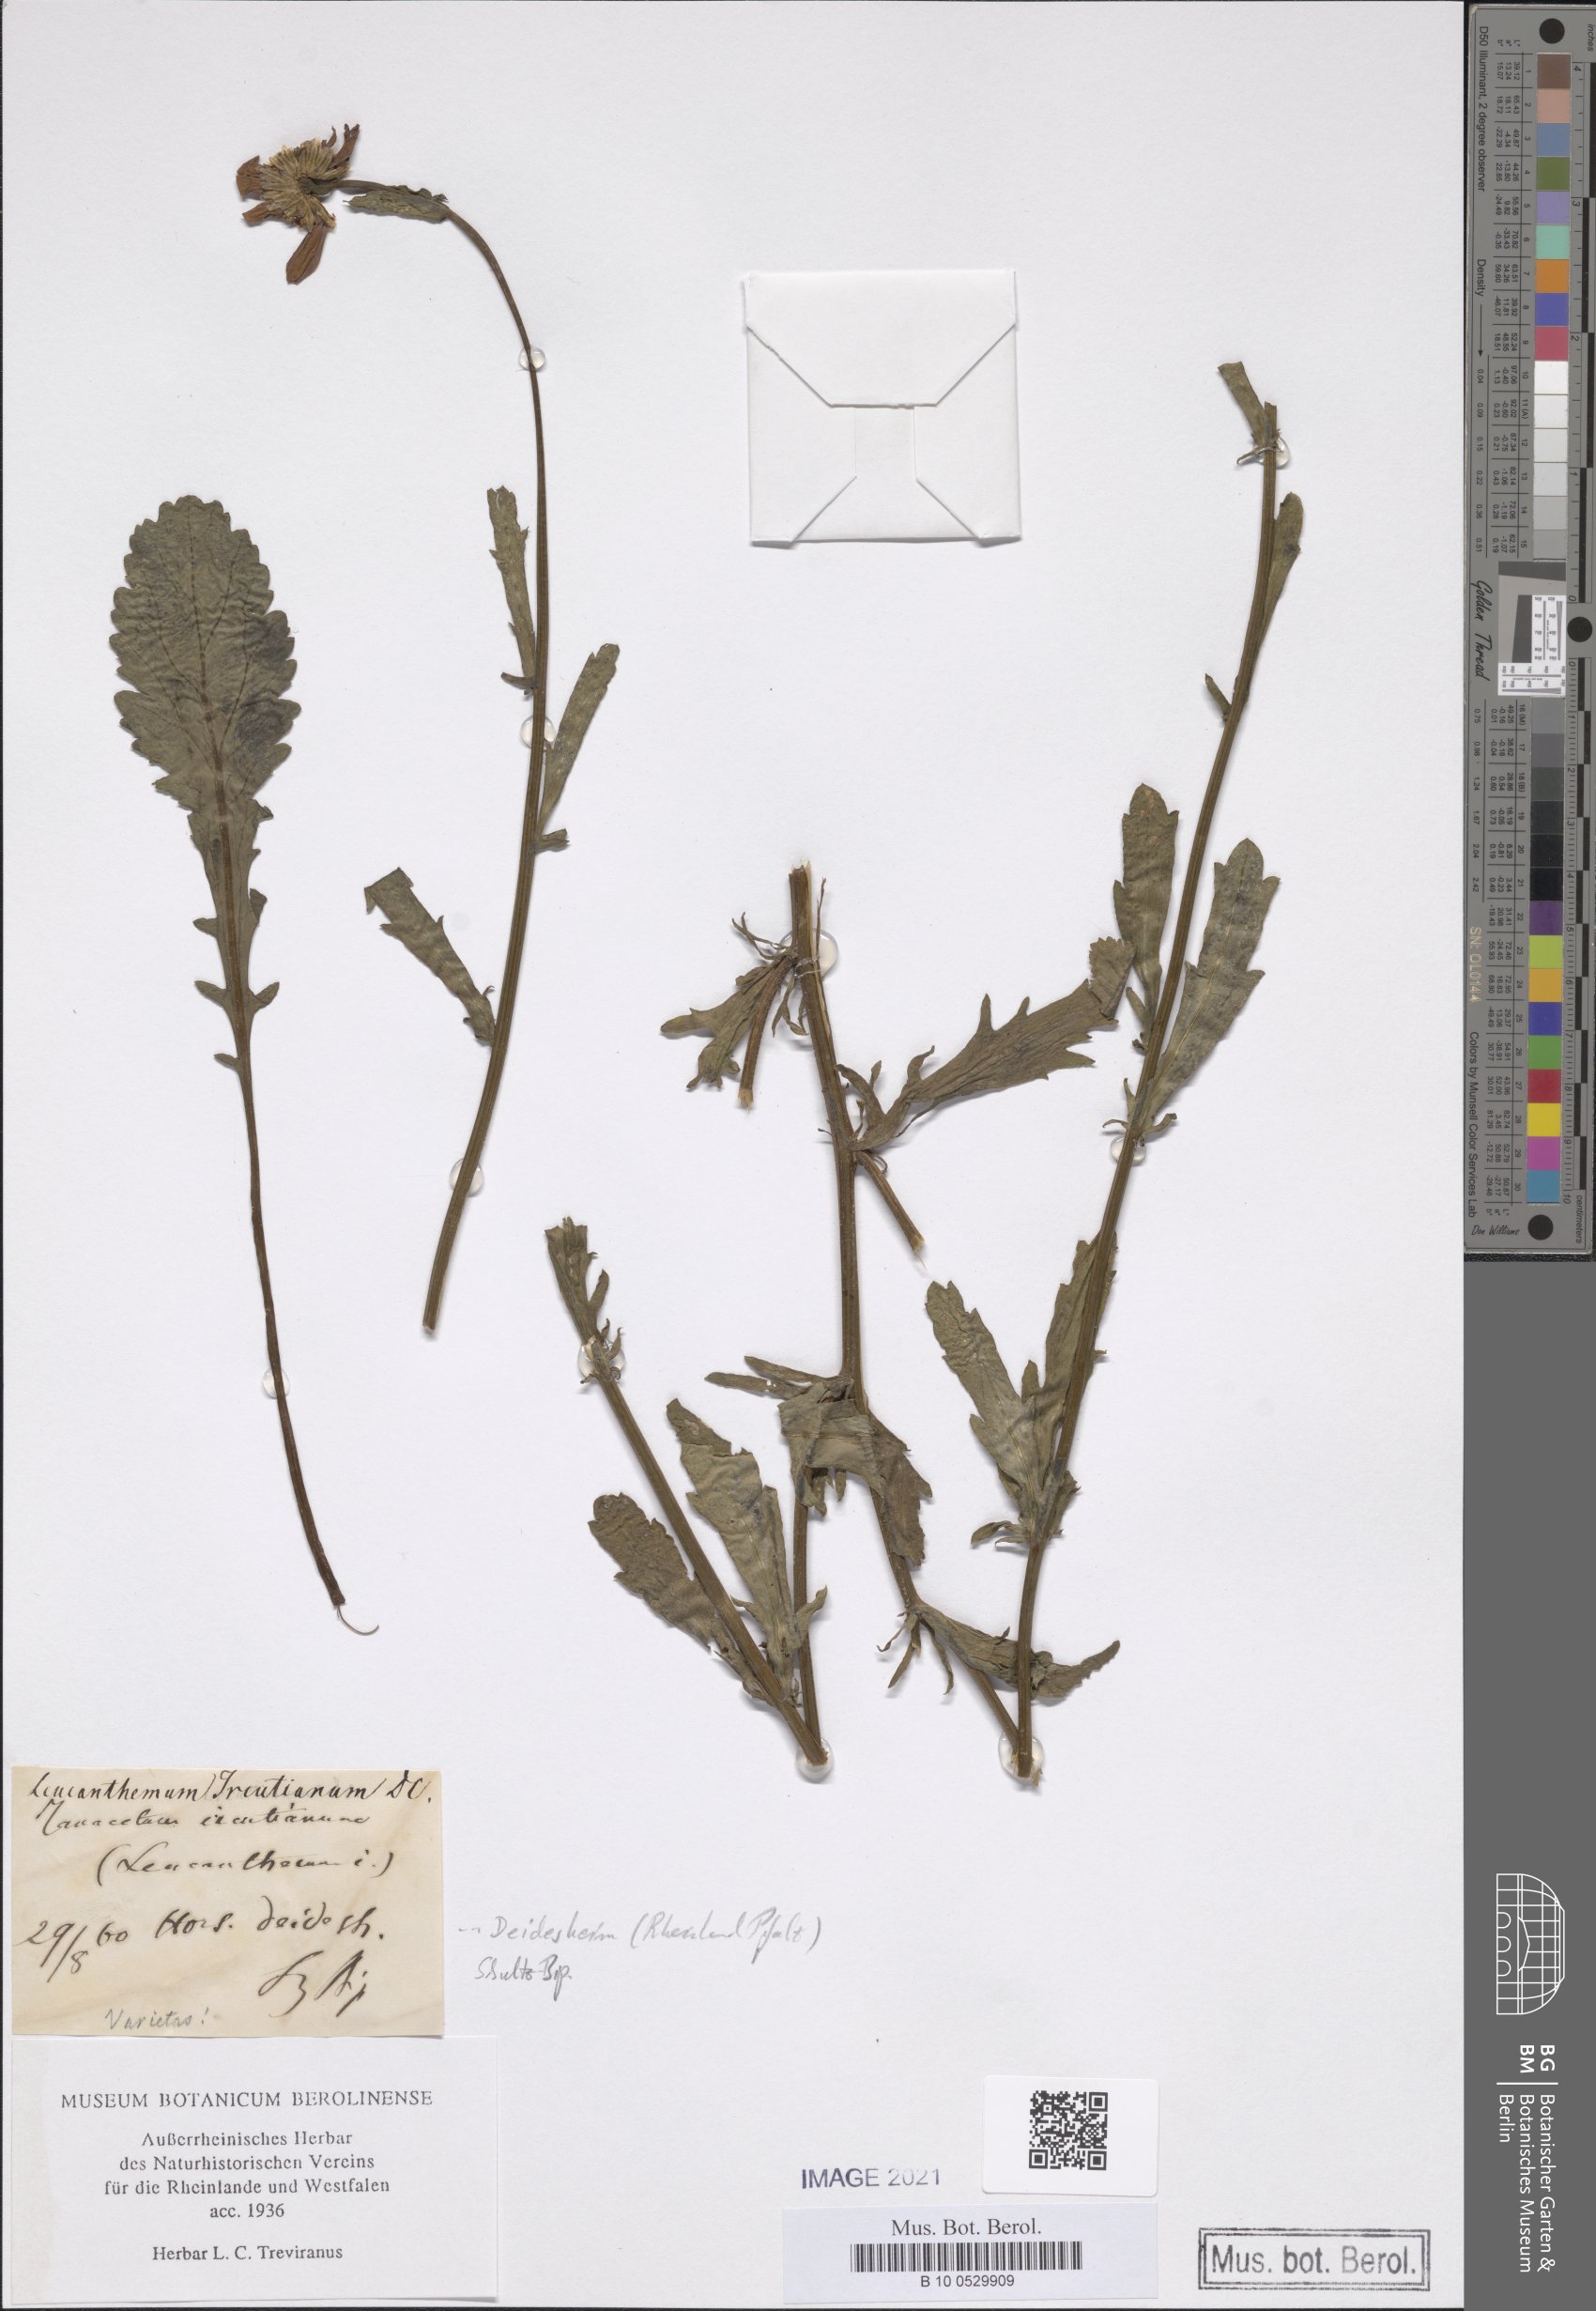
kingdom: Plantae
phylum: Tracheophyta
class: Magnoliopsida
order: Asterales
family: Asteraceae
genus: Leucanthemum
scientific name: Leucanthemum ircutianum
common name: Daisy
